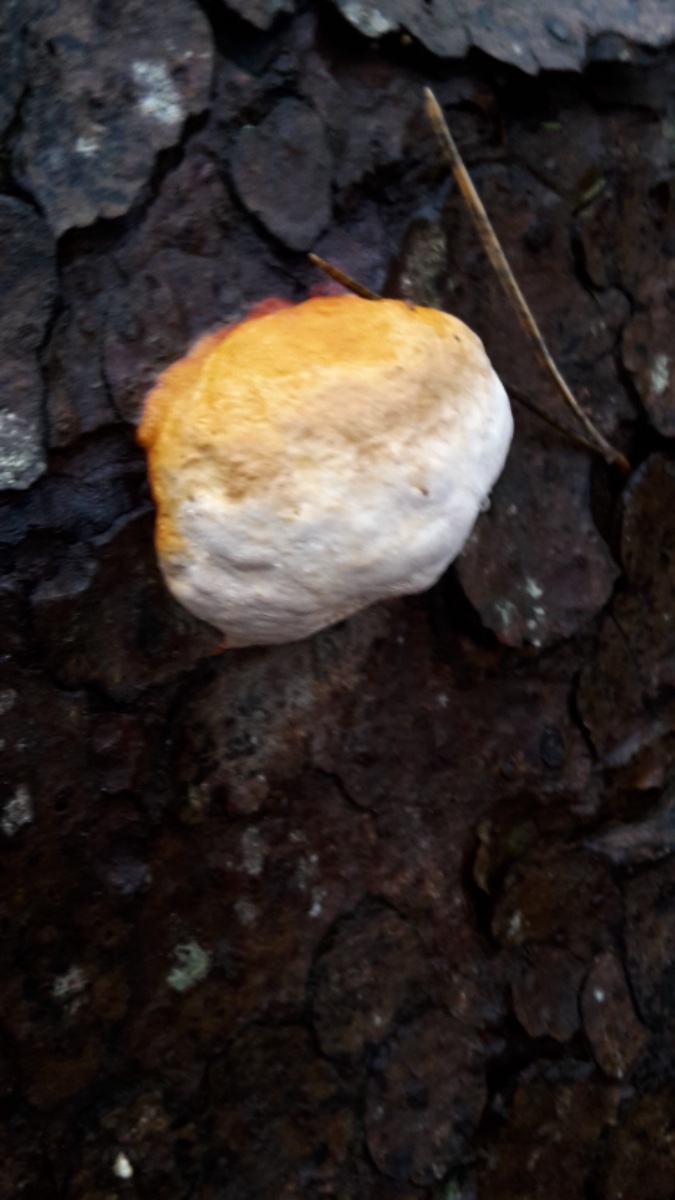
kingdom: Fungi
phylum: Basidiomycota
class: Agaricomycetes
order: Polyporales
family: Fomitopsidaceae
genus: Fomitopsis
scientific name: Fomitopsis pinicola
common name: randbæltet hovporesvamp
